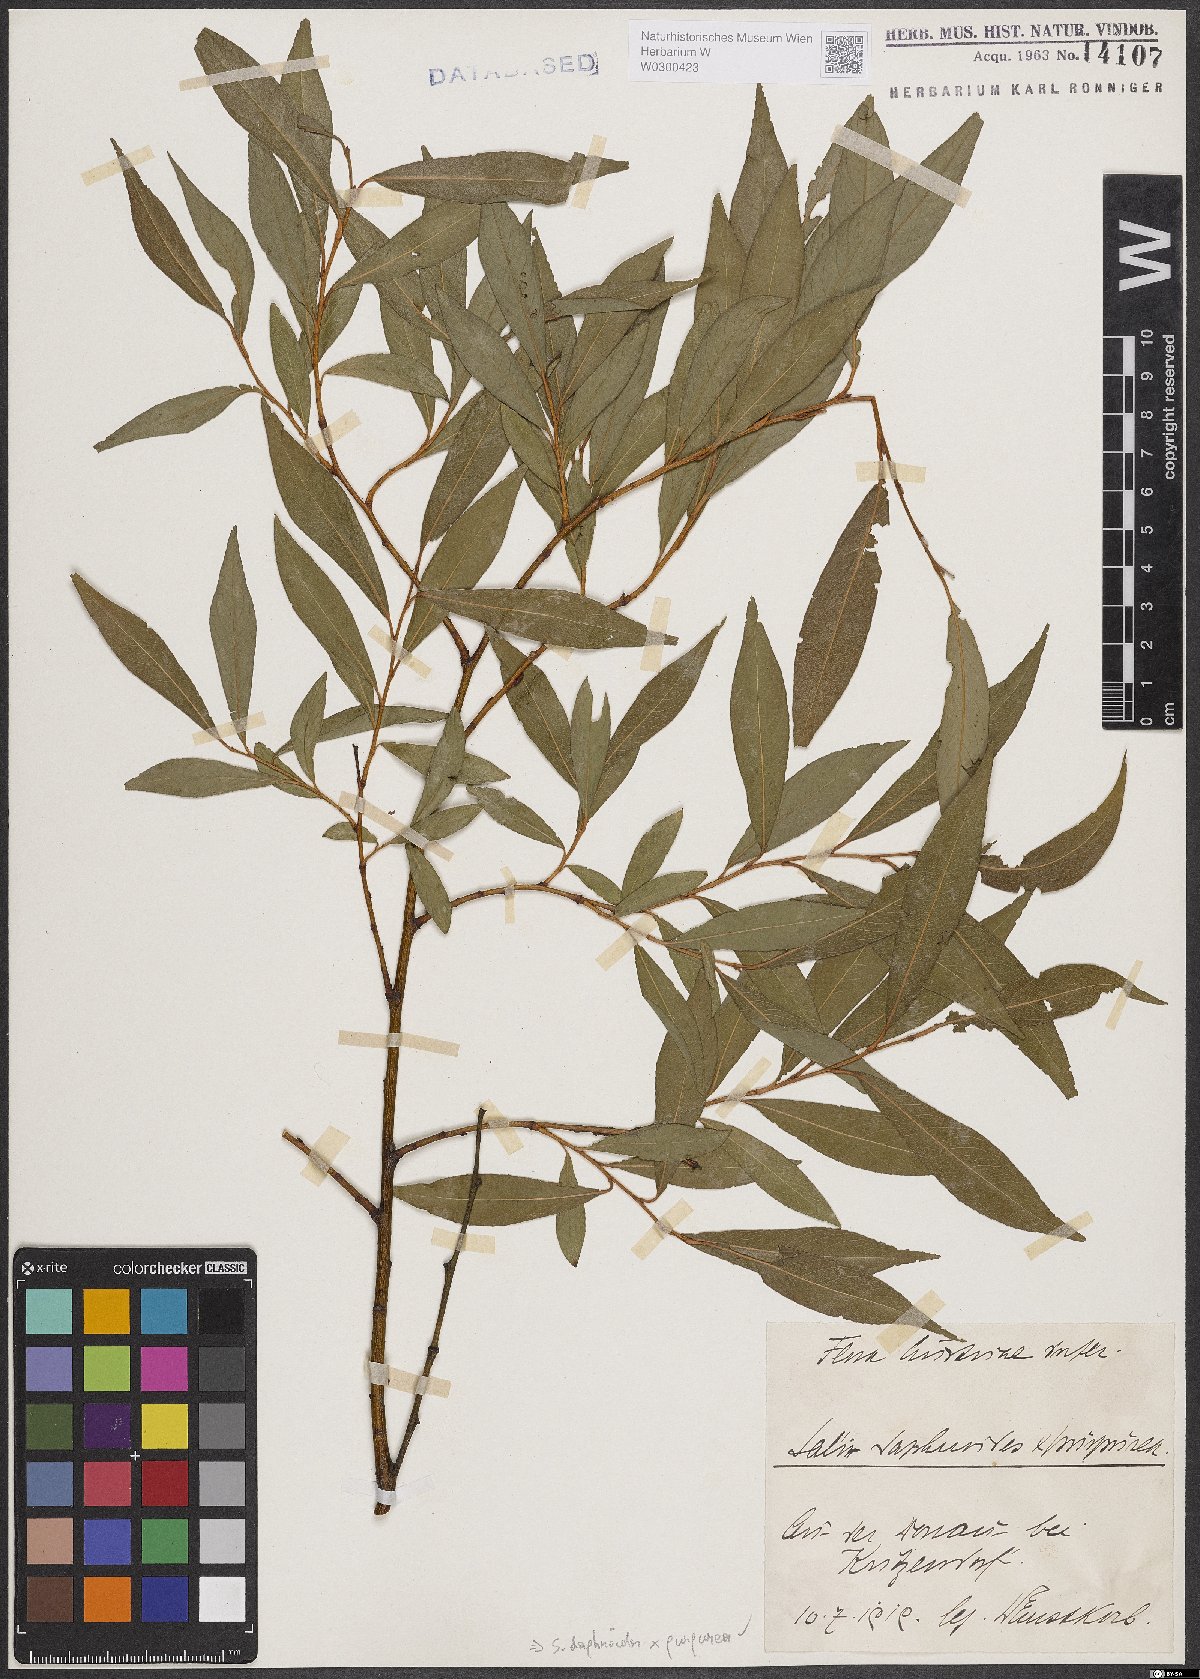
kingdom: Plantae
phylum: Tracheophyta
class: Magnoliopsida
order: Malpighiales
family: Salicaceae
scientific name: Salicaceae
